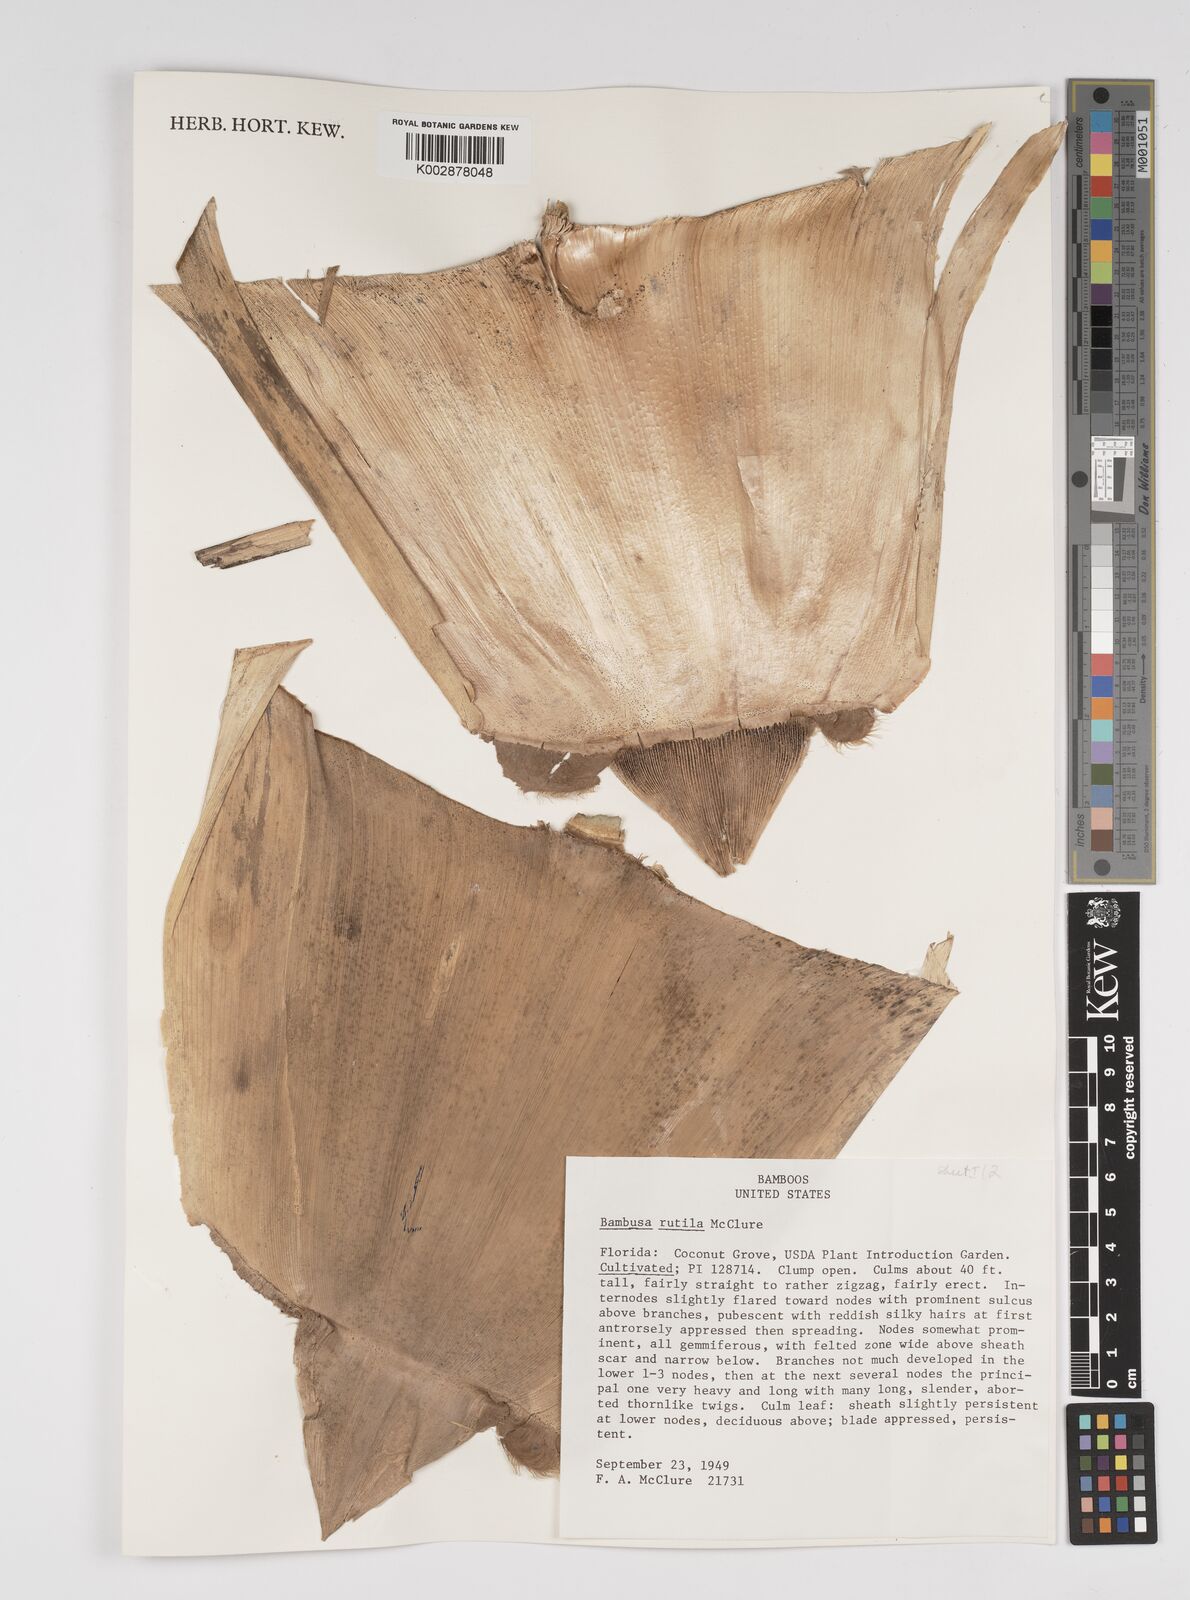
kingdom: Plantae
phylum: Tracheophyta
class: Liliopsida
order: Poales
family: Poaceae
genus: Bambusa
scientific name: Bambusa rutila
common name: Muk bamboo
